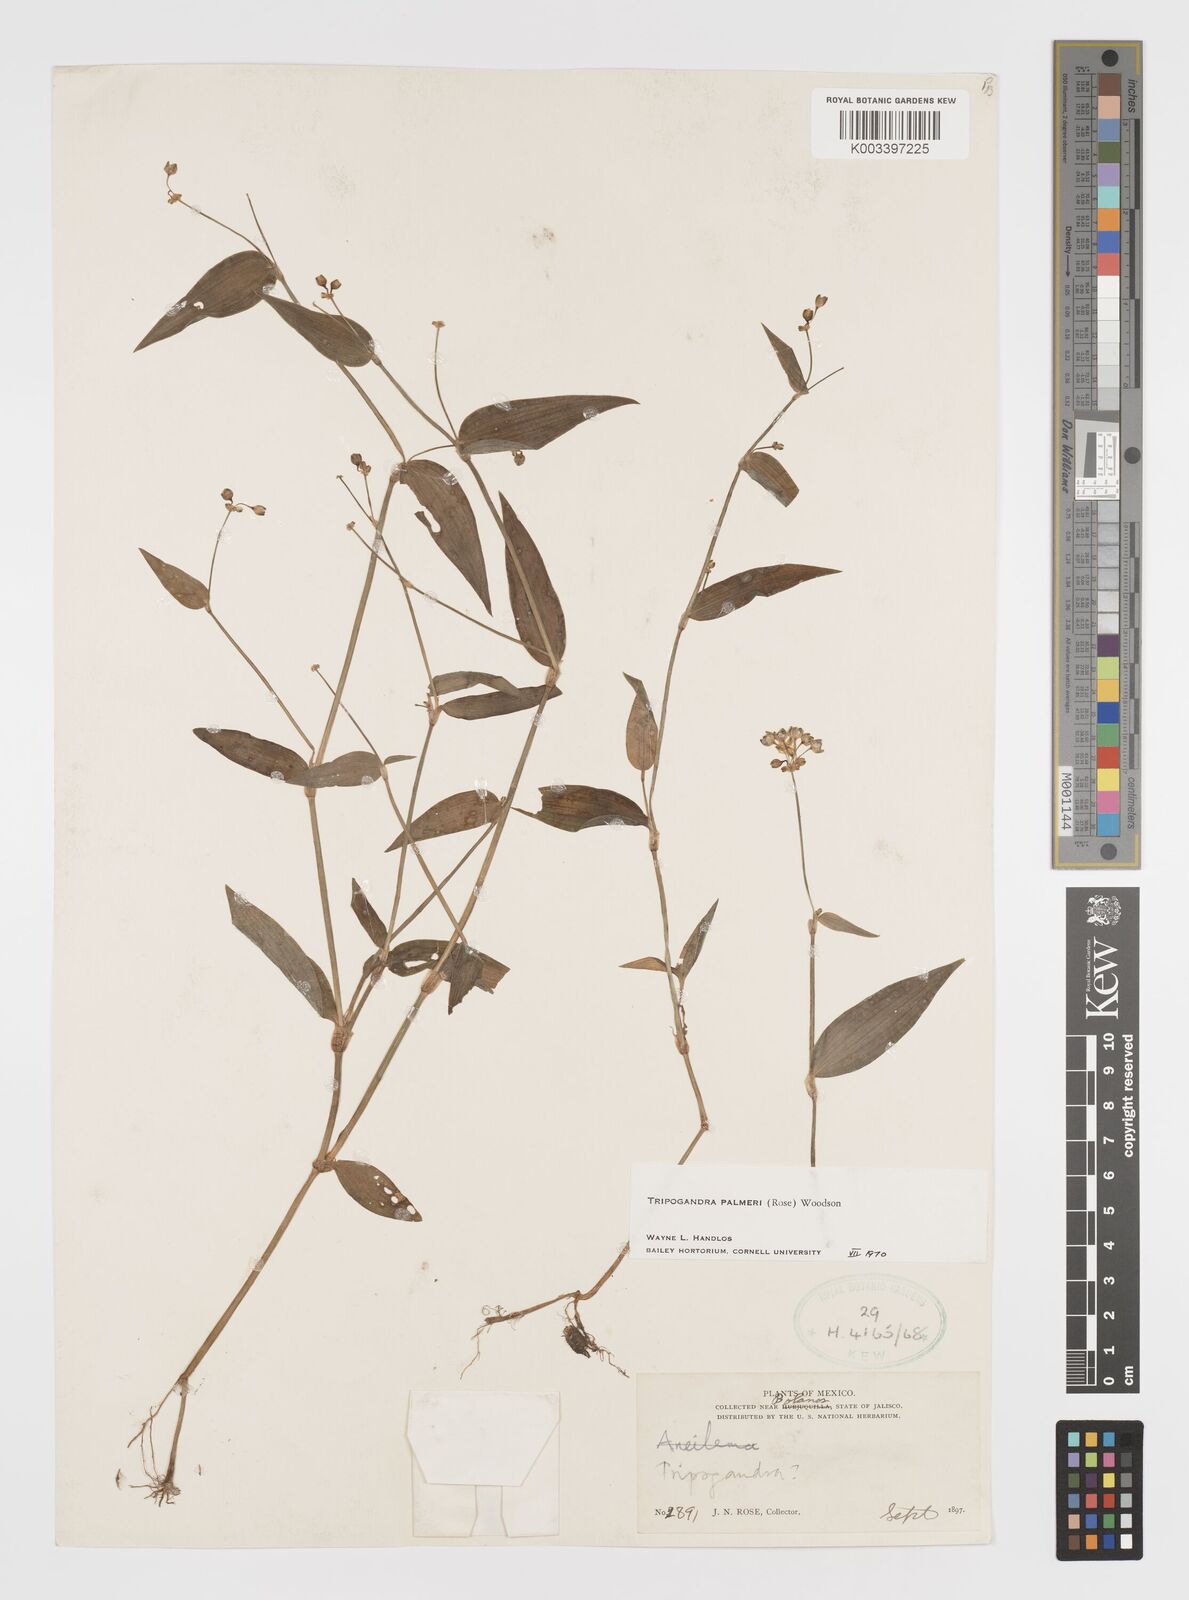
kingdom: Plantae
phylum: Tracheophyta
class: Liliopsida
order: Commelinales
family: Commelinaceae
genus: Callisia
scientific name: Callisia palmeri
